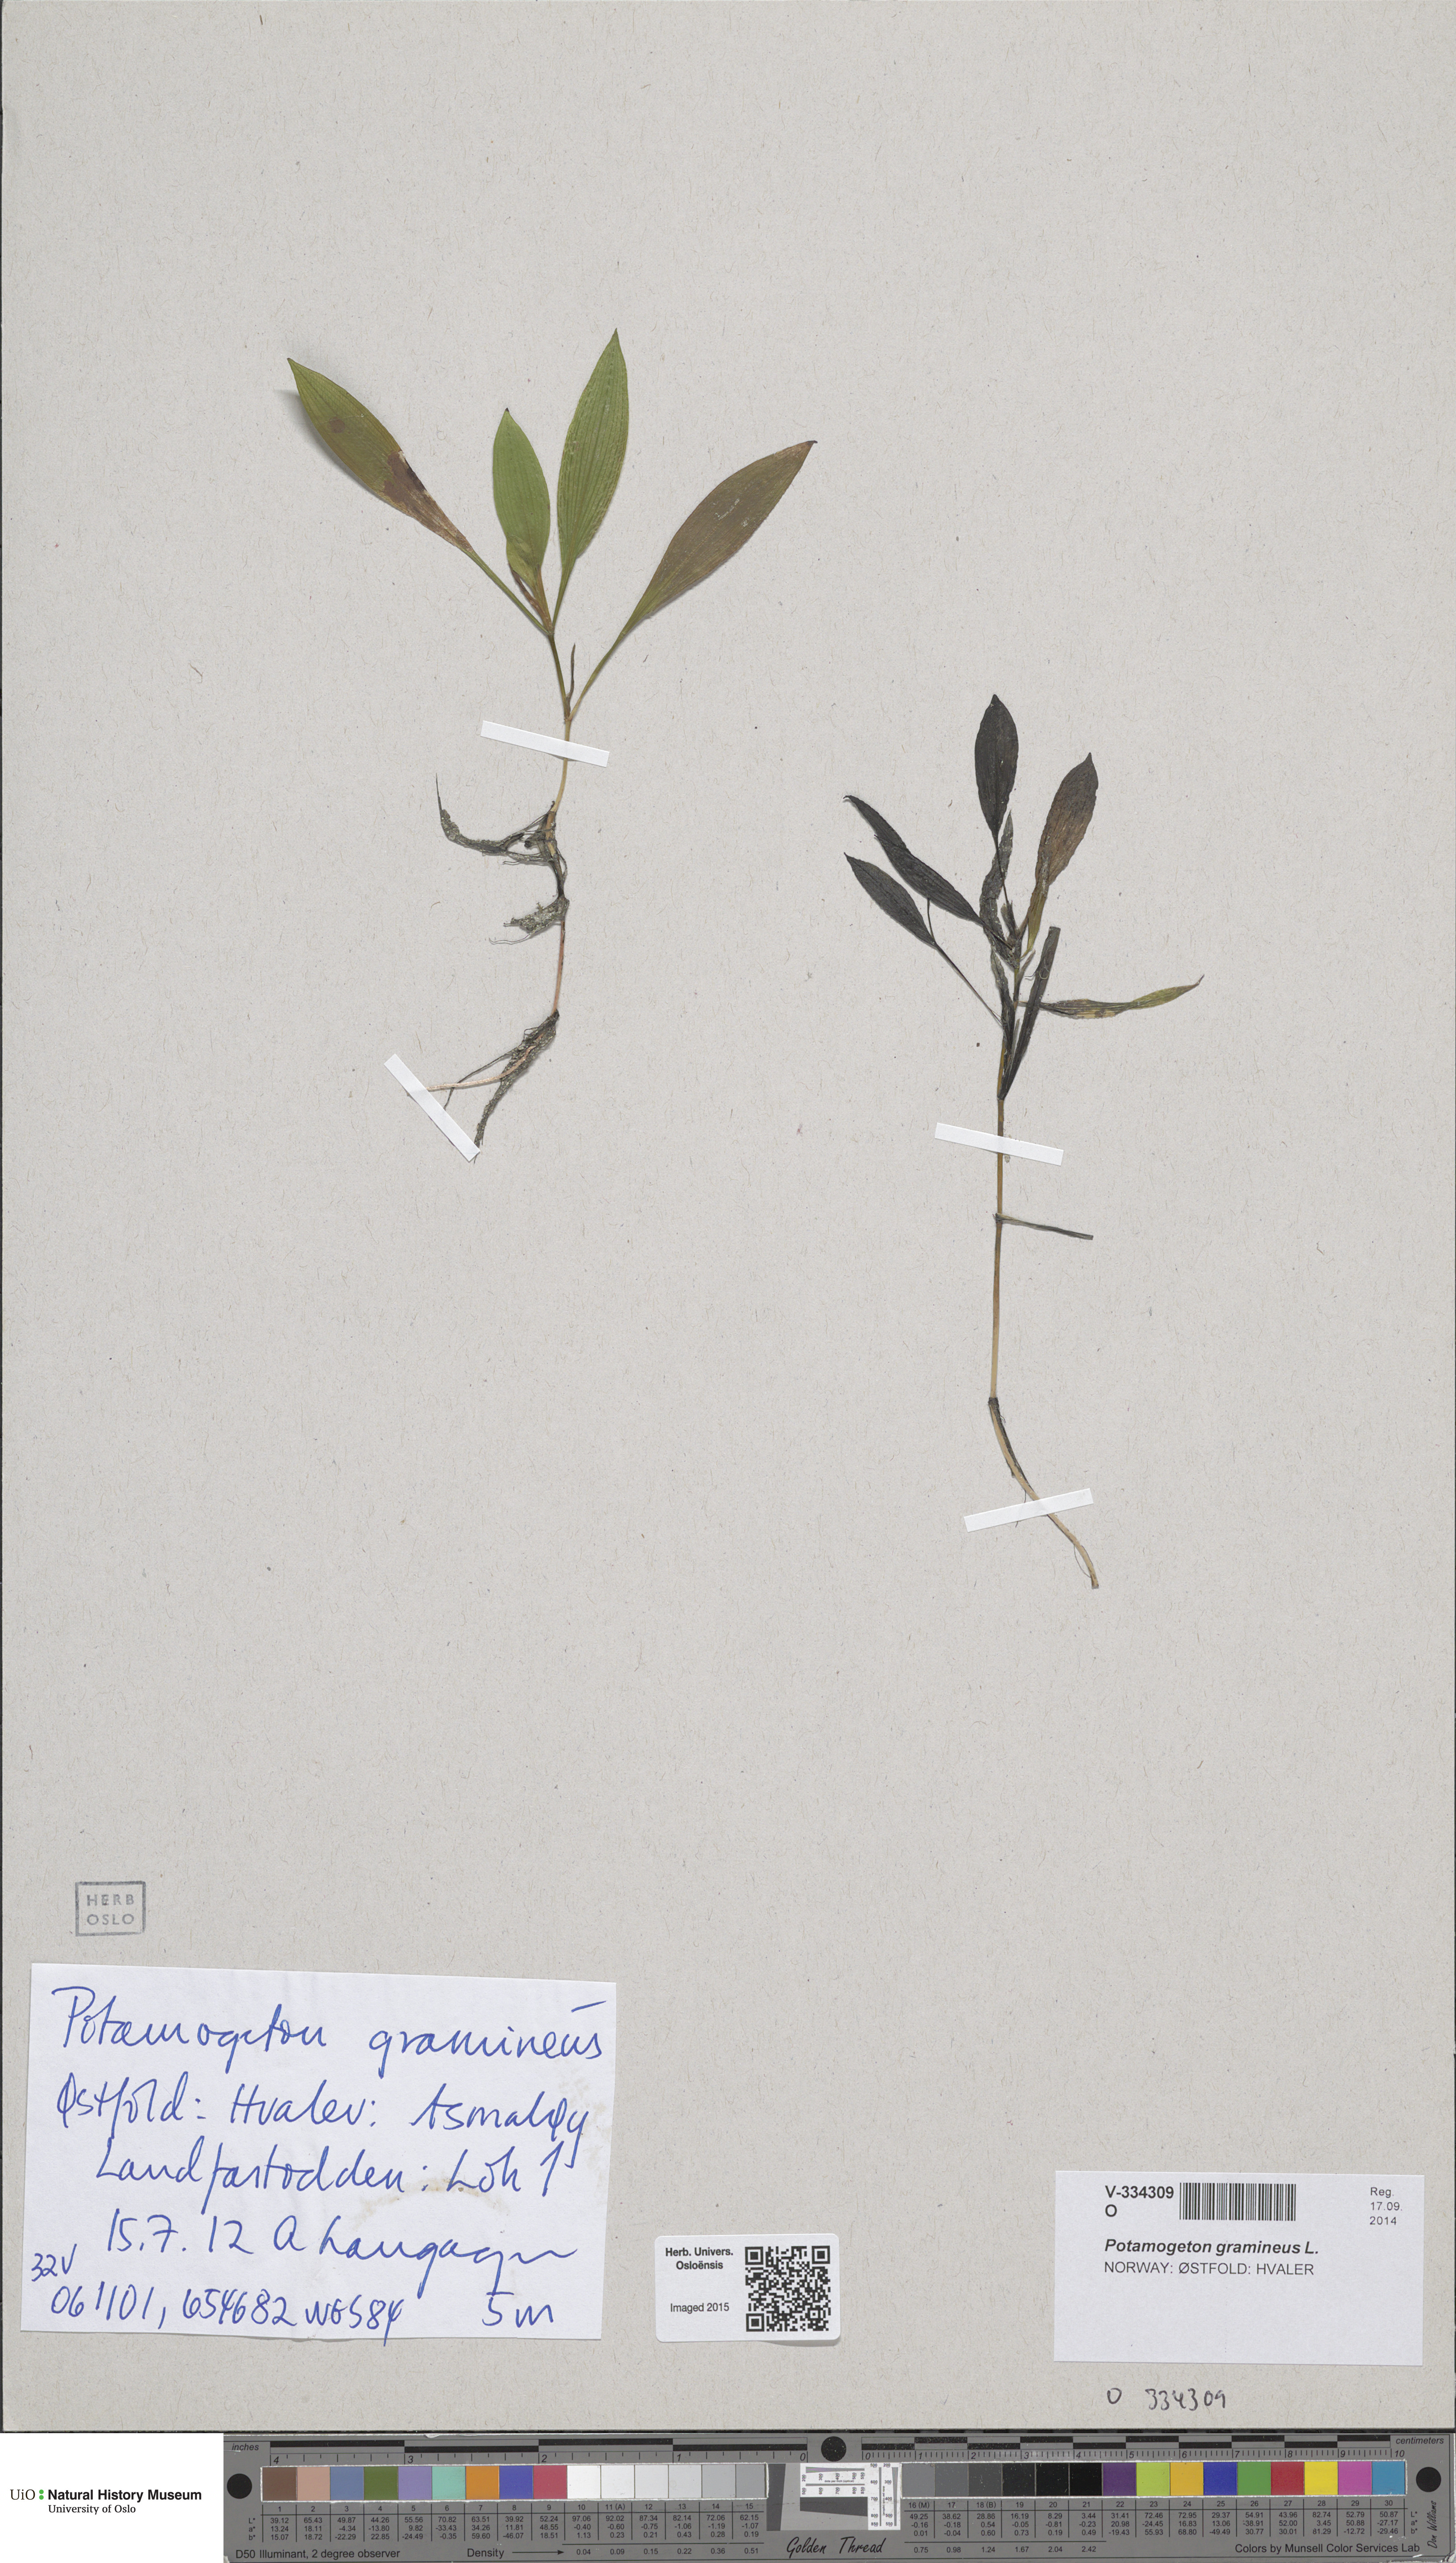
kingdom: Plantae
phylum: Tracheophyta
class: Liliopsida
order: Alismatales
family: Potamogetonaceae
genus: Potamogeton
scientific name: Potamogeton gramineus
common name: Various-leaved pondweed
